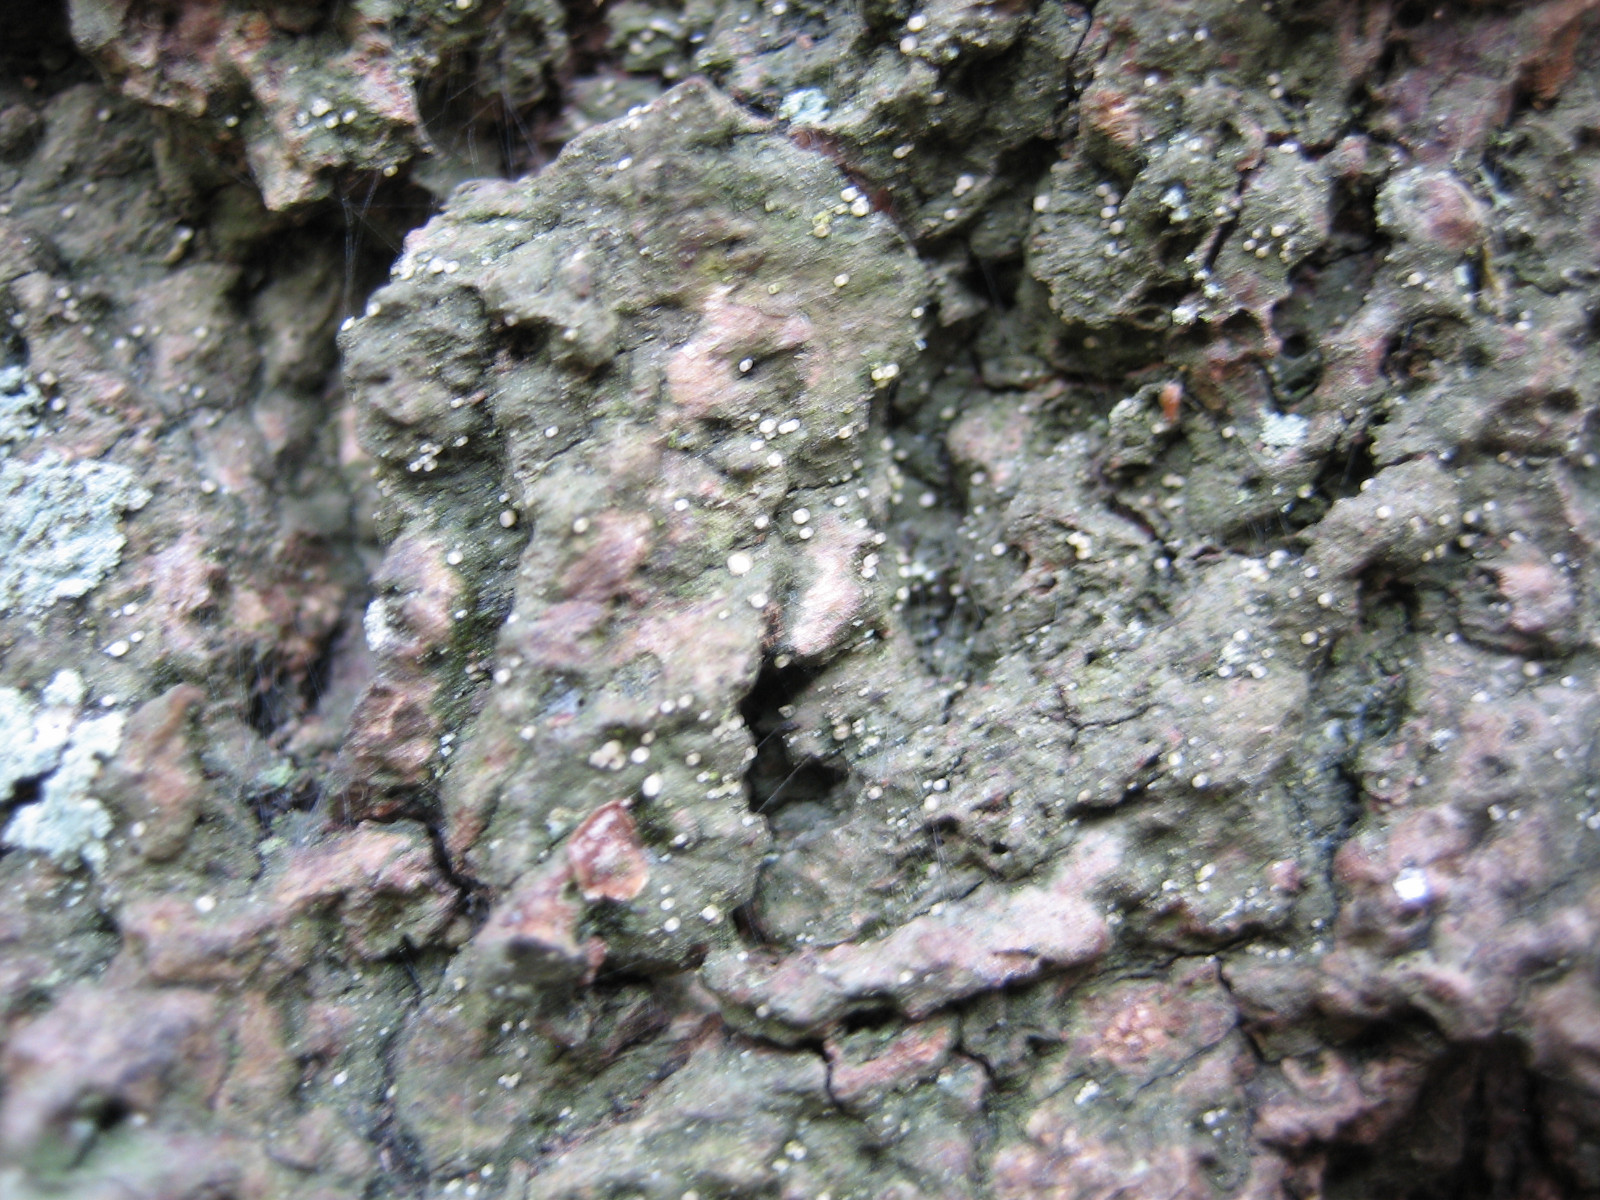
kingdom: Fungi
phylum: Ascomycota
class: Lecanoromycetes
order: Ostropales
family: Coenogoniaceae
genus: Coenogonium
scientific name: Coenogonium pineti
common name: liden vokslav
